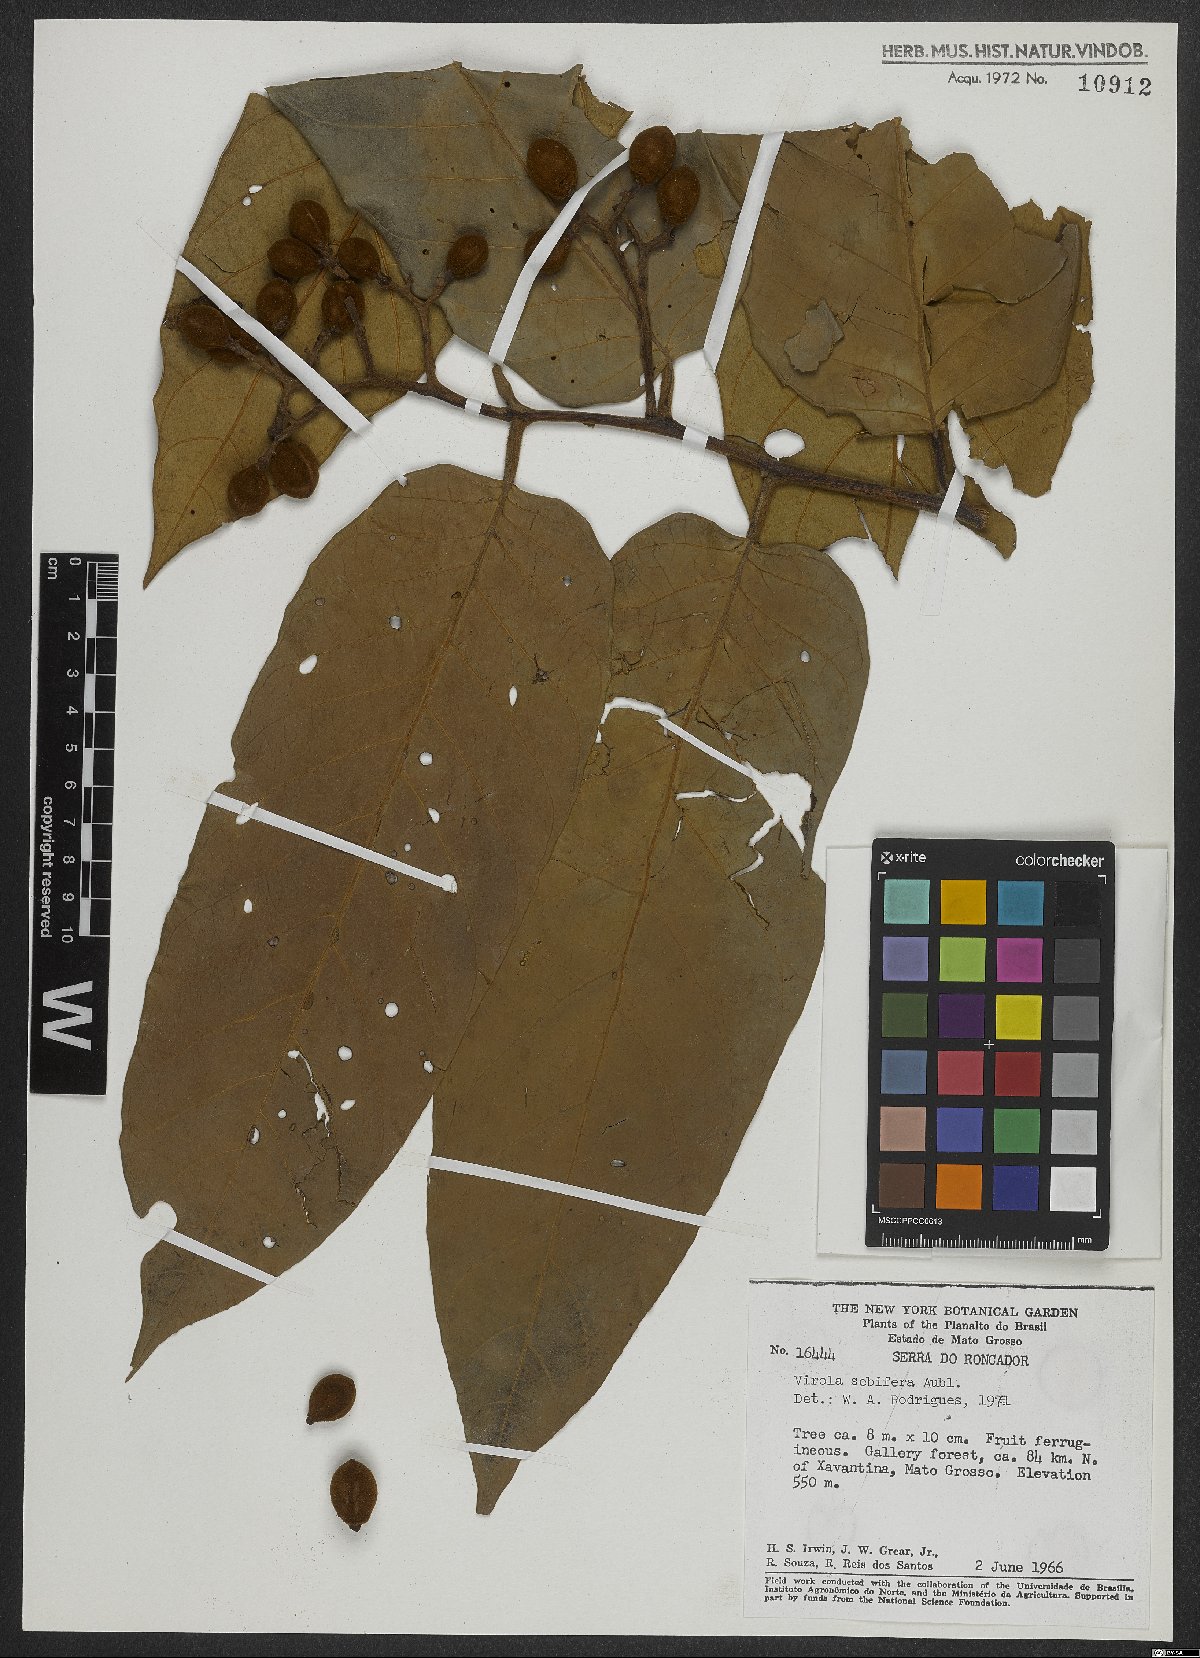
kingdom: Plantae
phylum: Tracheophyta
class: Magnoliopsida
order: Magnoliales
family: Myristicaceae
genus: Virola
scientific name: Virola sebifera
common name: Red ucuuba
